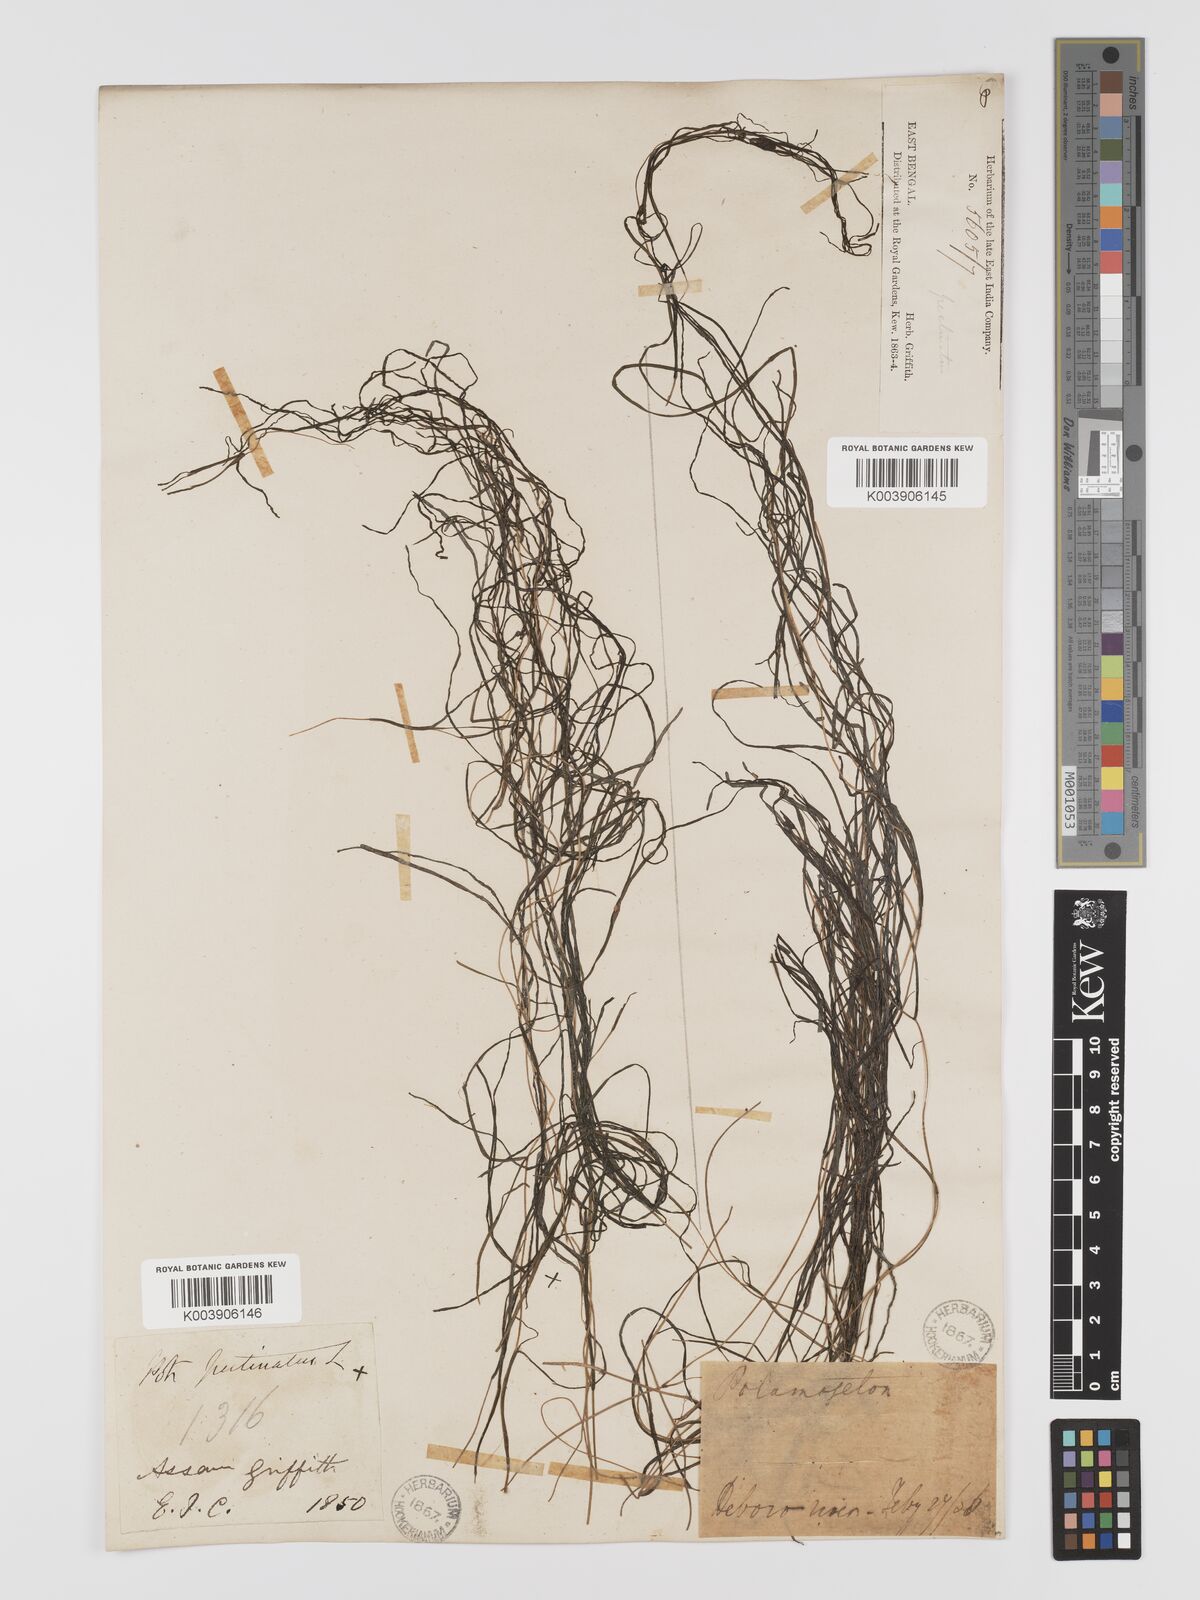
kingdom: Plantae
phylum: Tracheophyta
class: Liliopsida
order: Alismatales
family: Potamogetonaceae
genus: Stuckenia
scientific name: Stuckenia pectinata
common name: Sago pondweed
